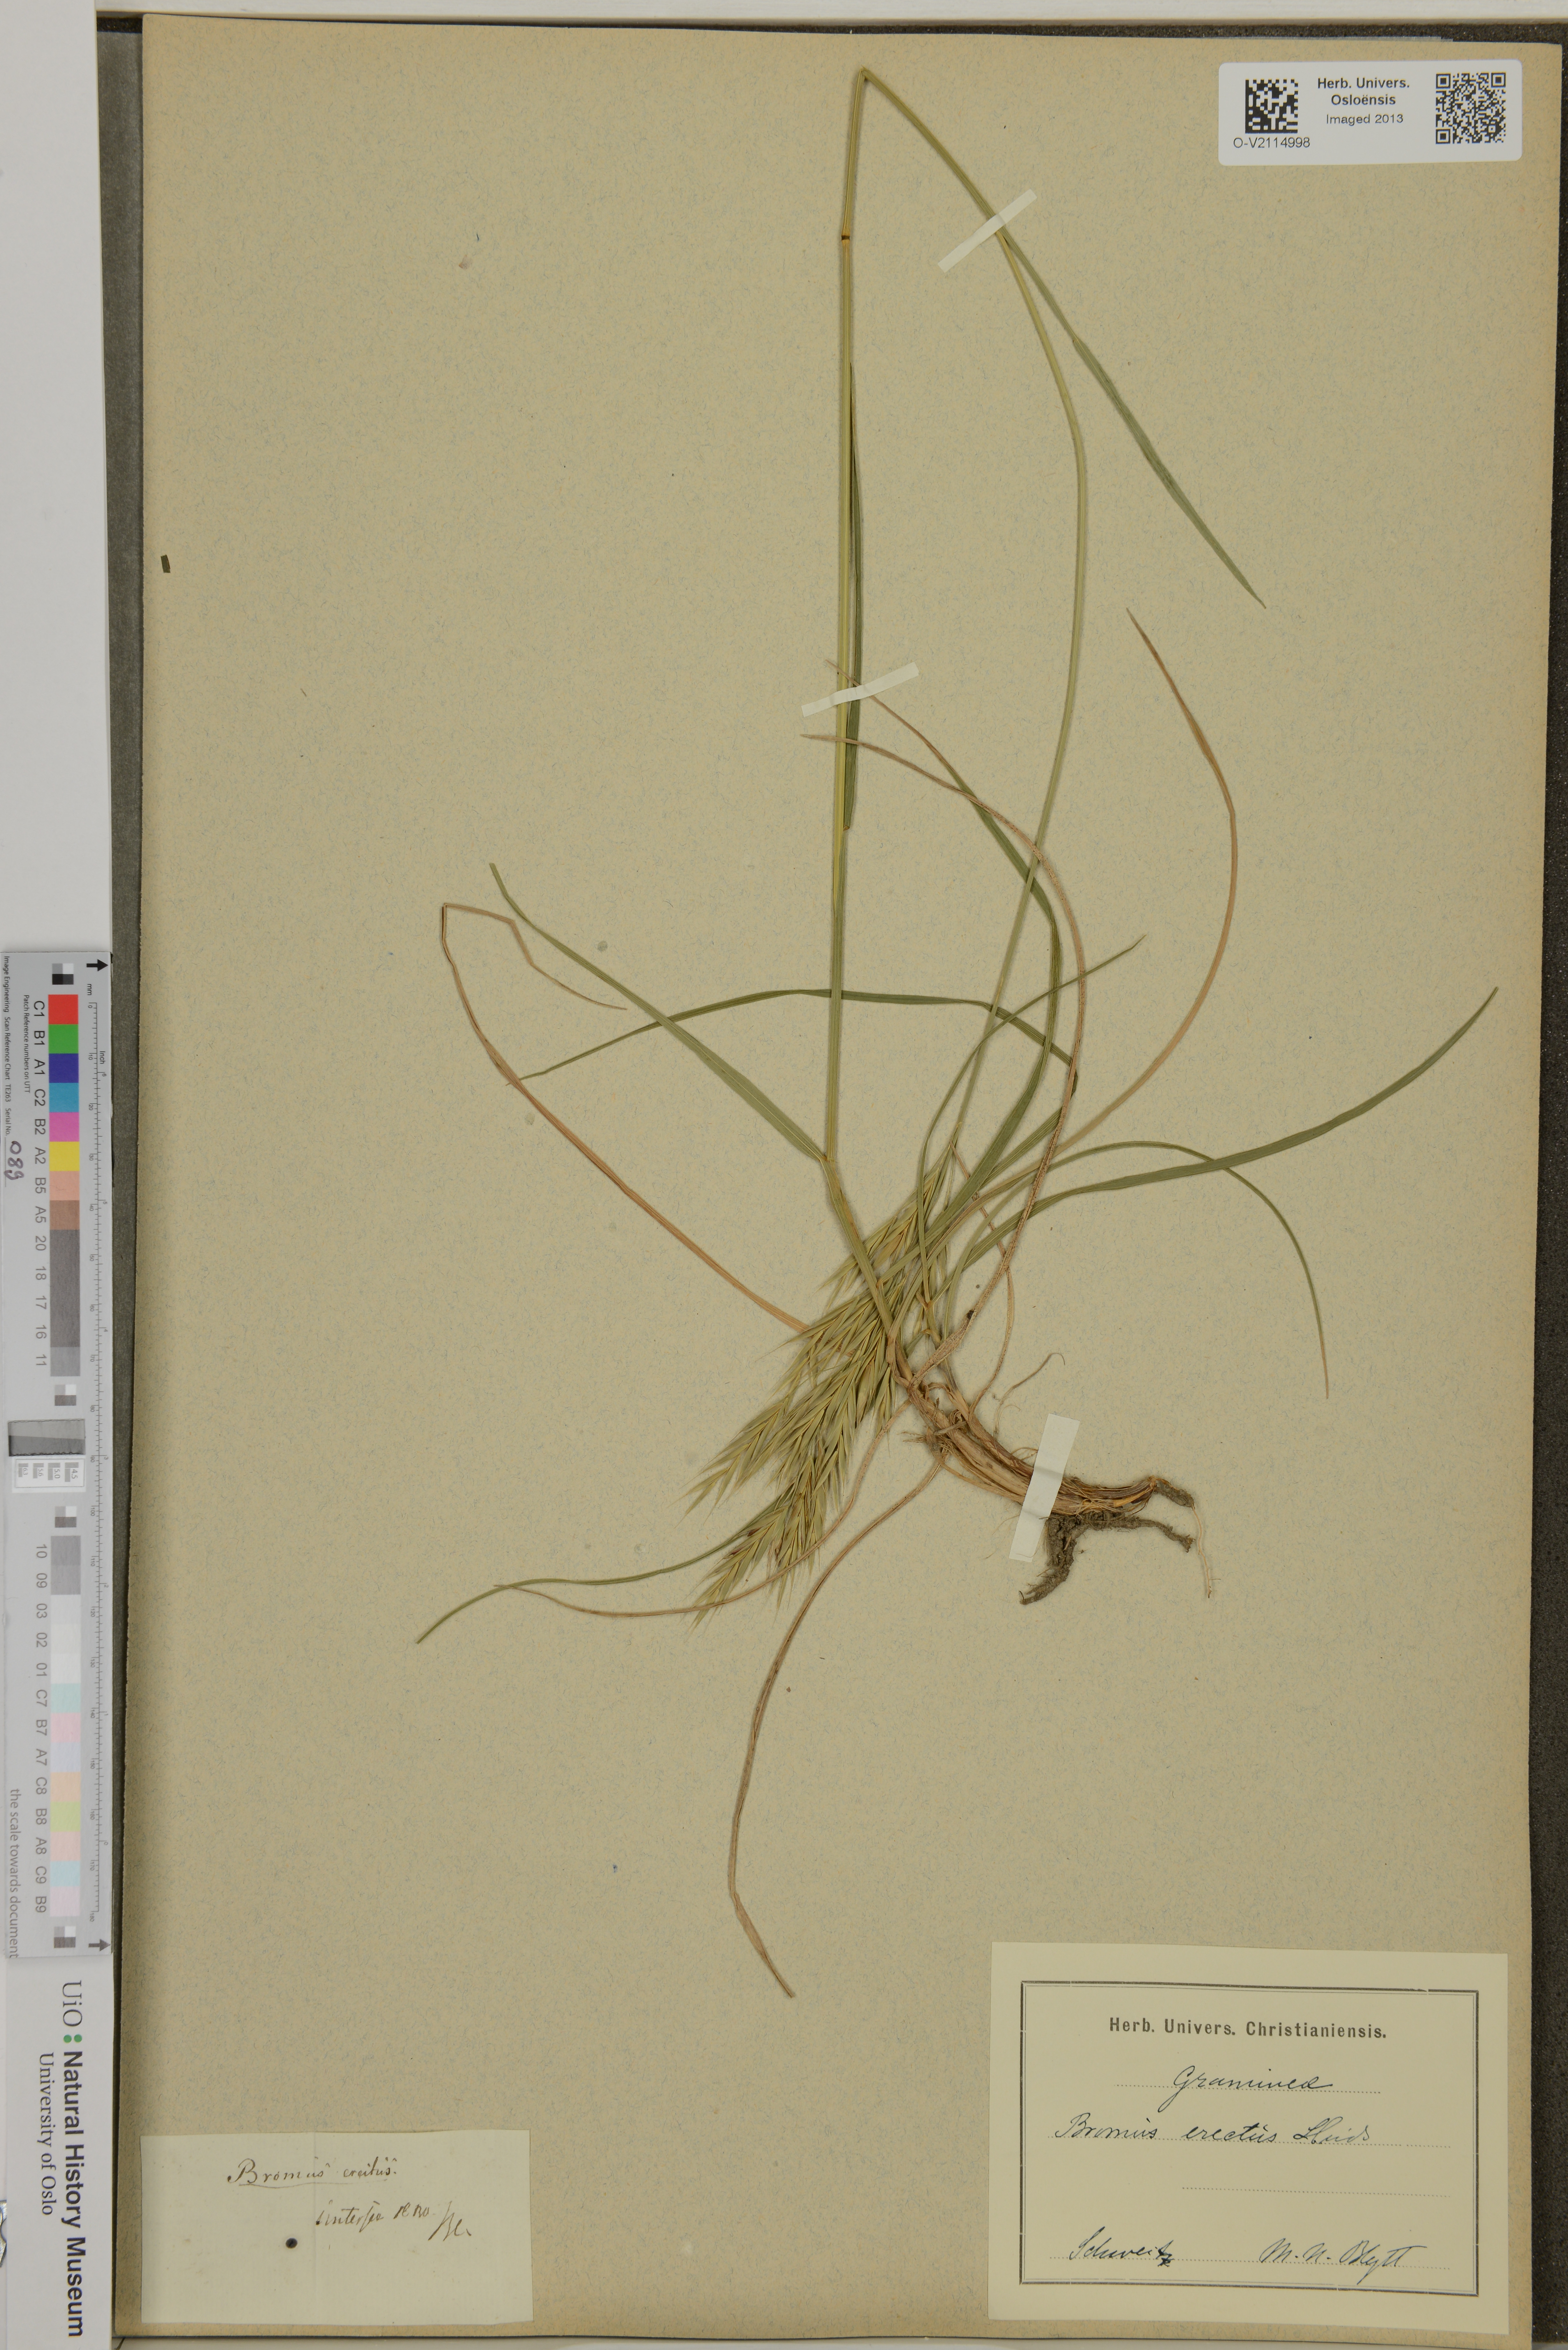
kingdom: Plantae
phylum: Tracheophyta
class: Liliopsida
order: Poales
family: Poaceae
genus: Bromus
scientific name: Bromus erectus
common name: Erect brome
